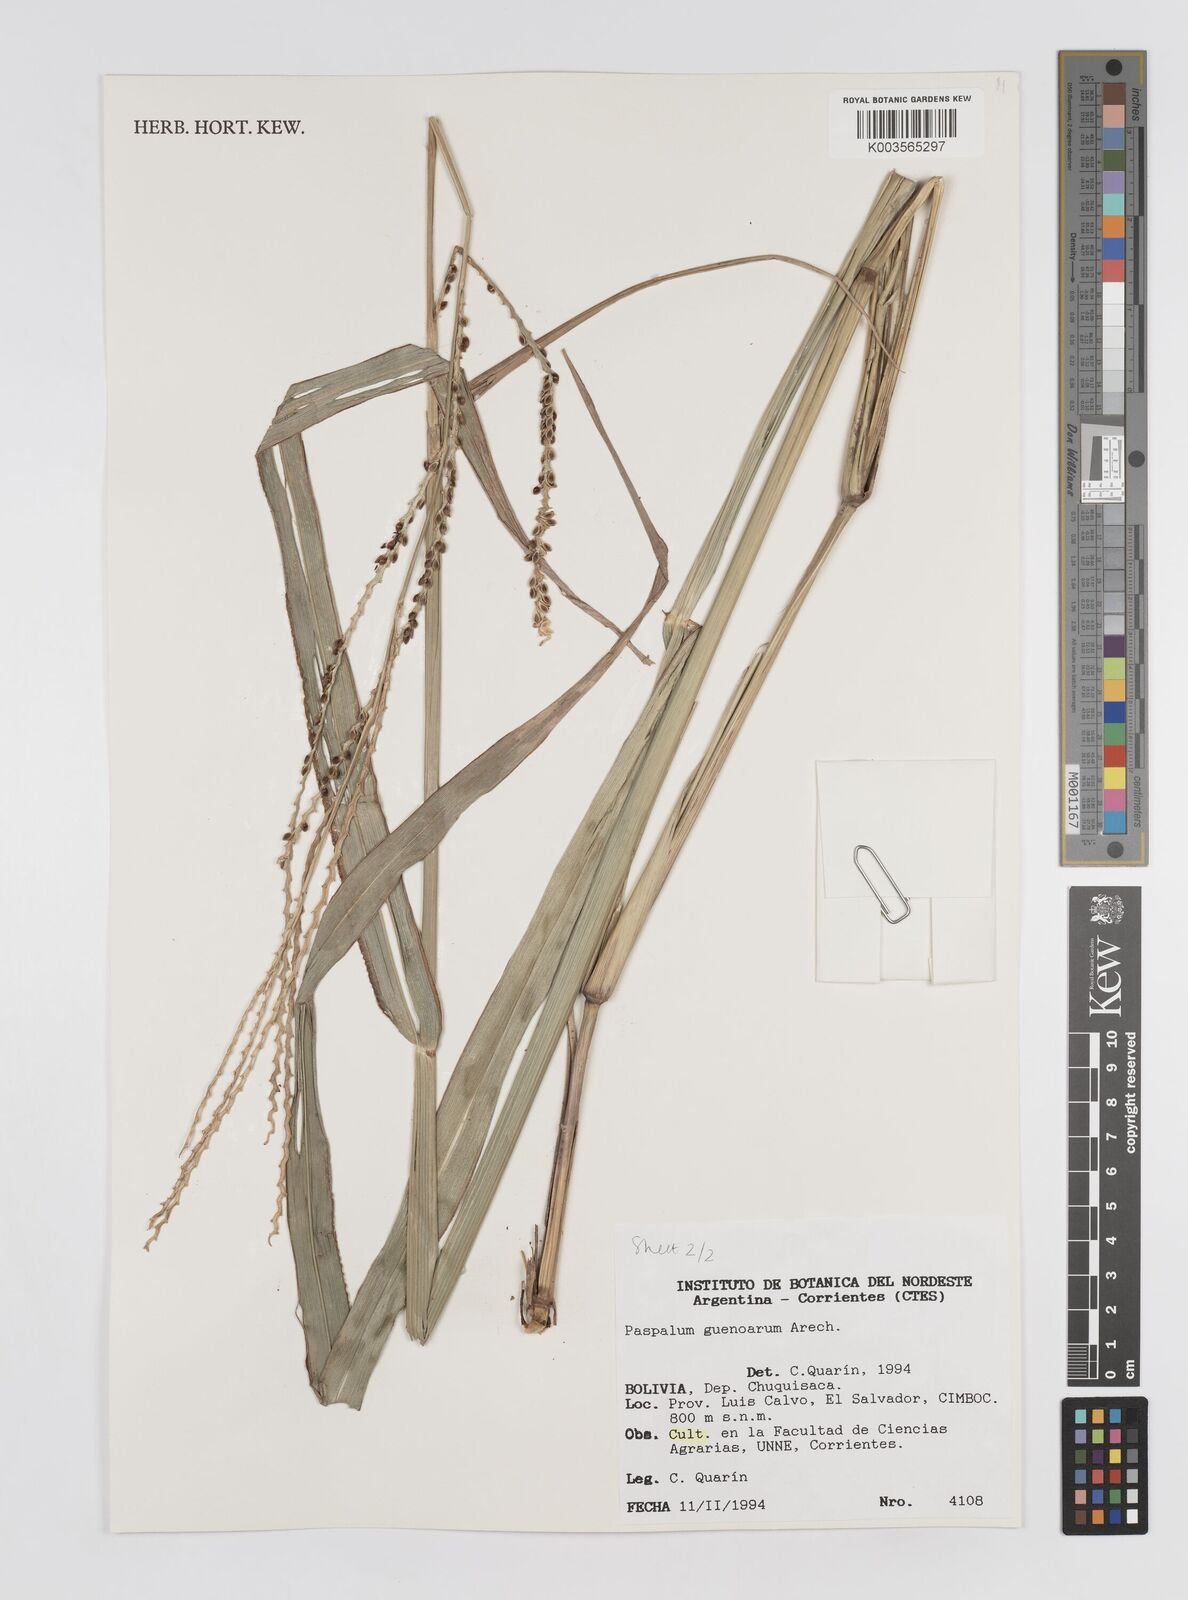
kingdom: Plantae
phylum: Tracheophyta
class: Liliopsida
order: Poales
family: Poaceae
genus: Paspalum
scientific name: Paspalum guenoarum
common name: Wintergreen paspalum
